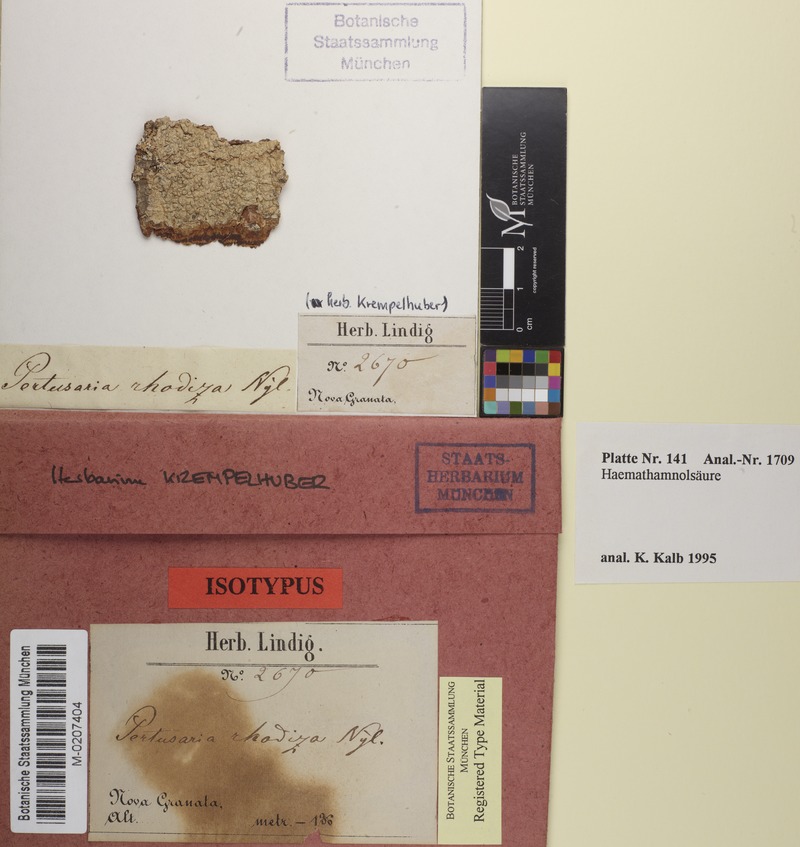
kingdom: Fungi
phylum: Ascomycota
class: Lecanoromycetes
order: Pertusariales
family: Pertusariaceae
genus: Pertusaria
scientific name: Pertusaria tetrathalamia
